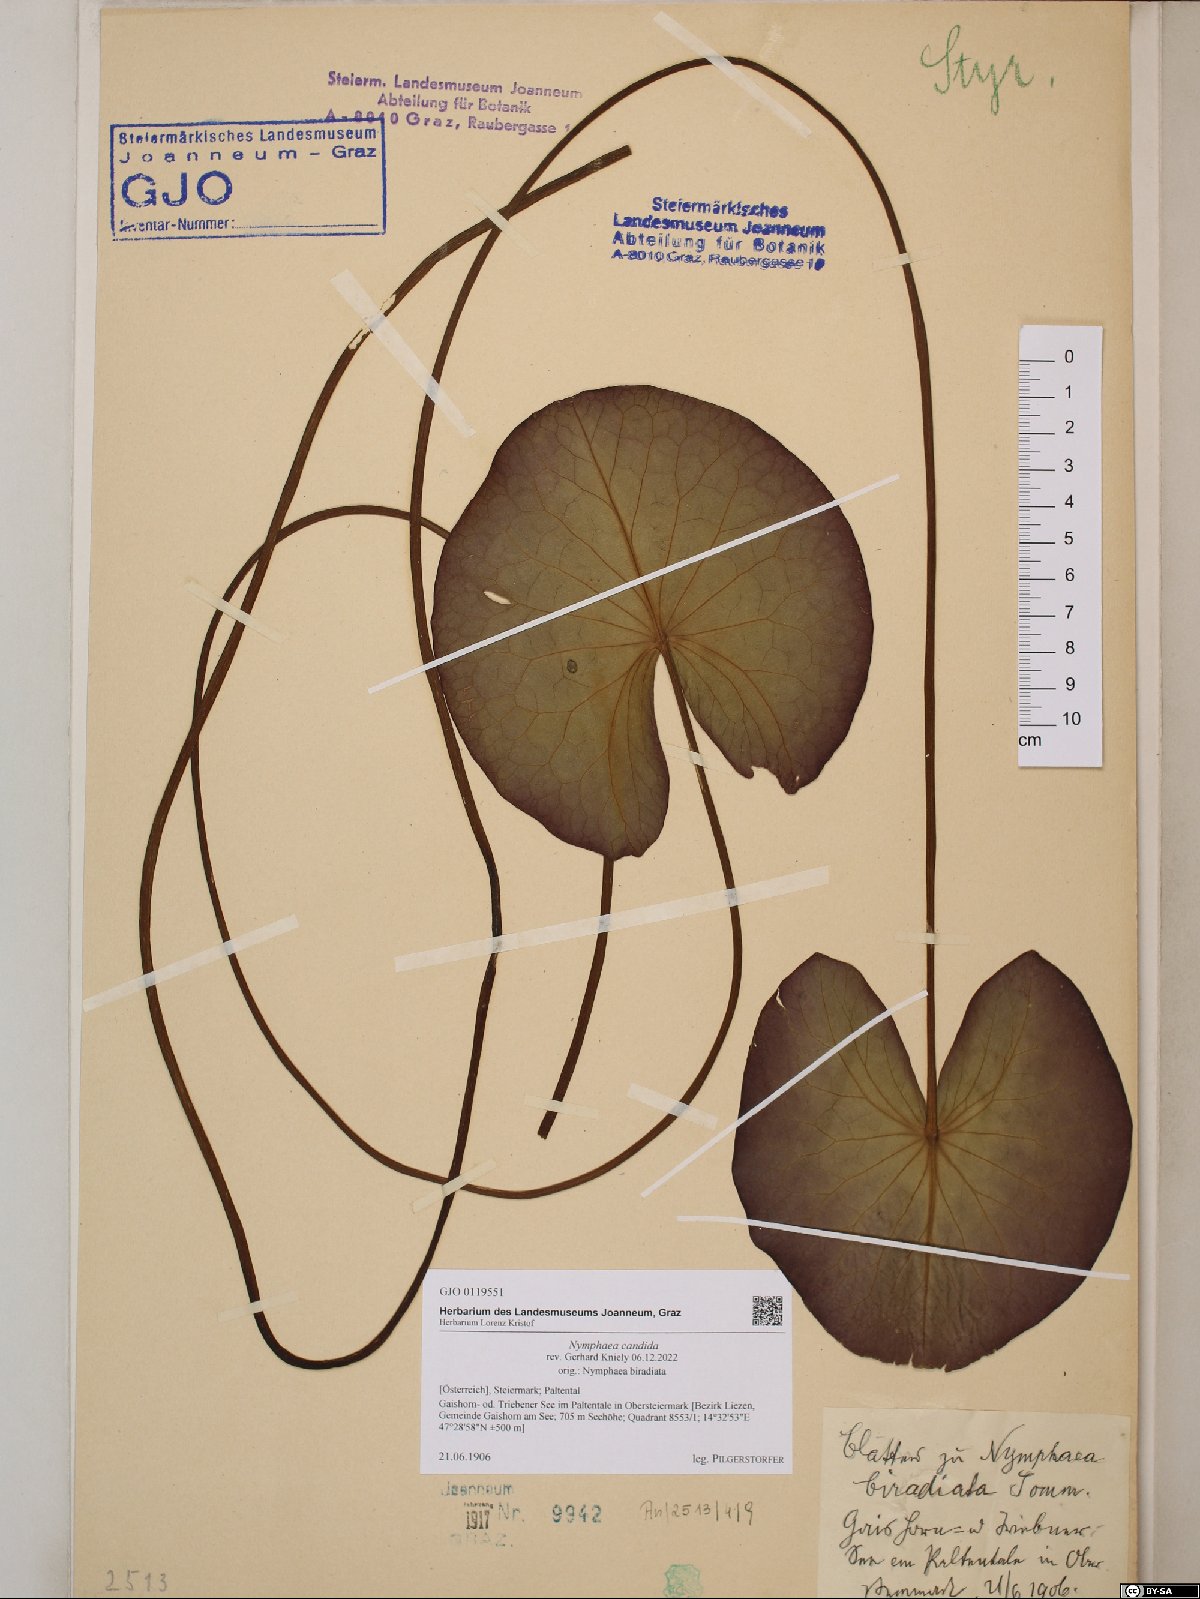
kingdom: Plantae
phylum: Tracheophyta
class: Magnoliopsida
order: Nymphaeales
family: Nymphaeaceae
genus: Nymphaea
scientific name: Nymphaea candida
